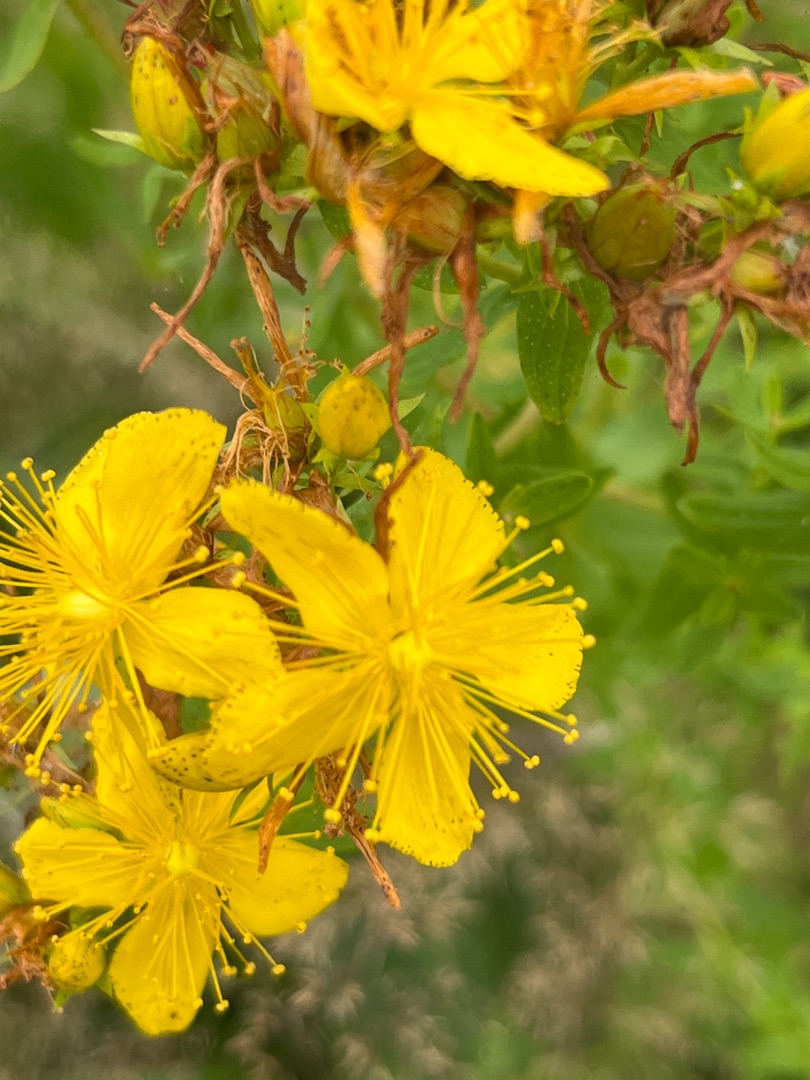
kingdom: Plantae
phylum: Tracheophyta
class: Magnoliopsida
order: Malpighiales
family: Hypericaceae
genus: Hypericum
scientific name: Hypericum perforatum
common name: Prikbladet perikon
